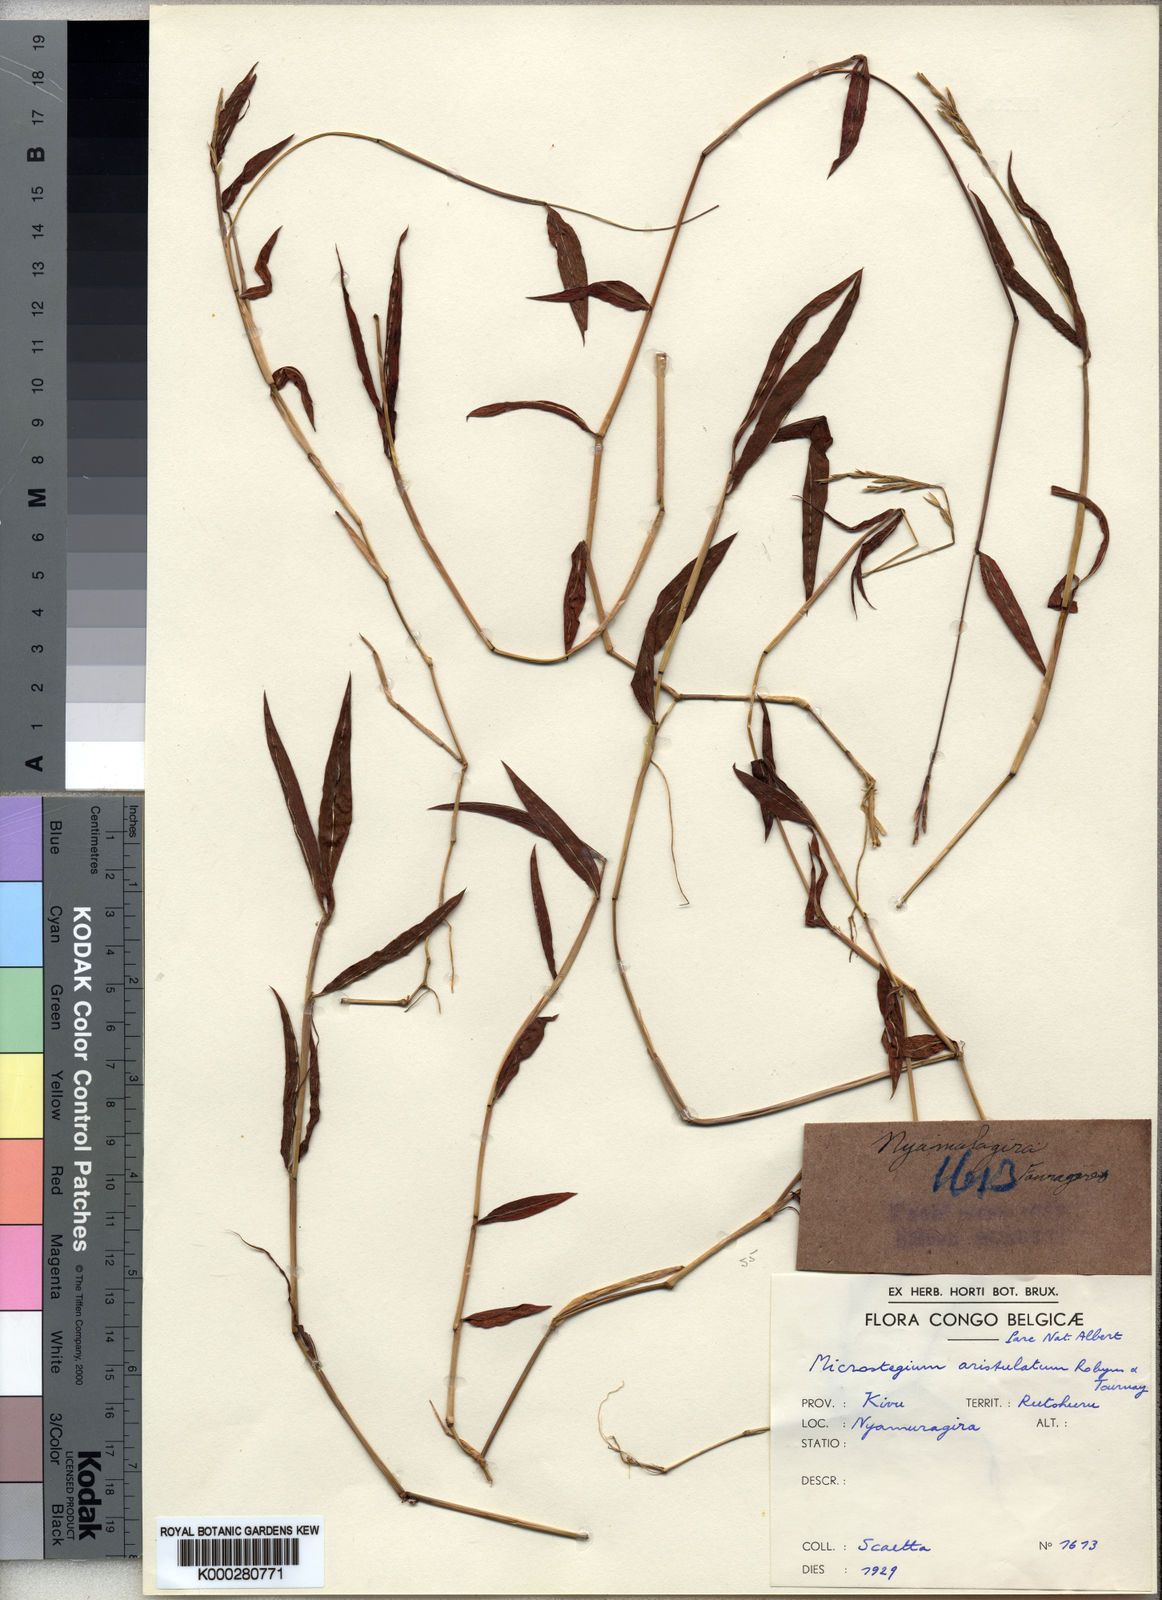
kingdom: Plantae
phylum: Tracheophyta
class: Liliopsida
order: Poales
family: Poaceae
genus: Microstegium
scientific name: Microstegium vimineum
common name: Japanese stiltgrass
